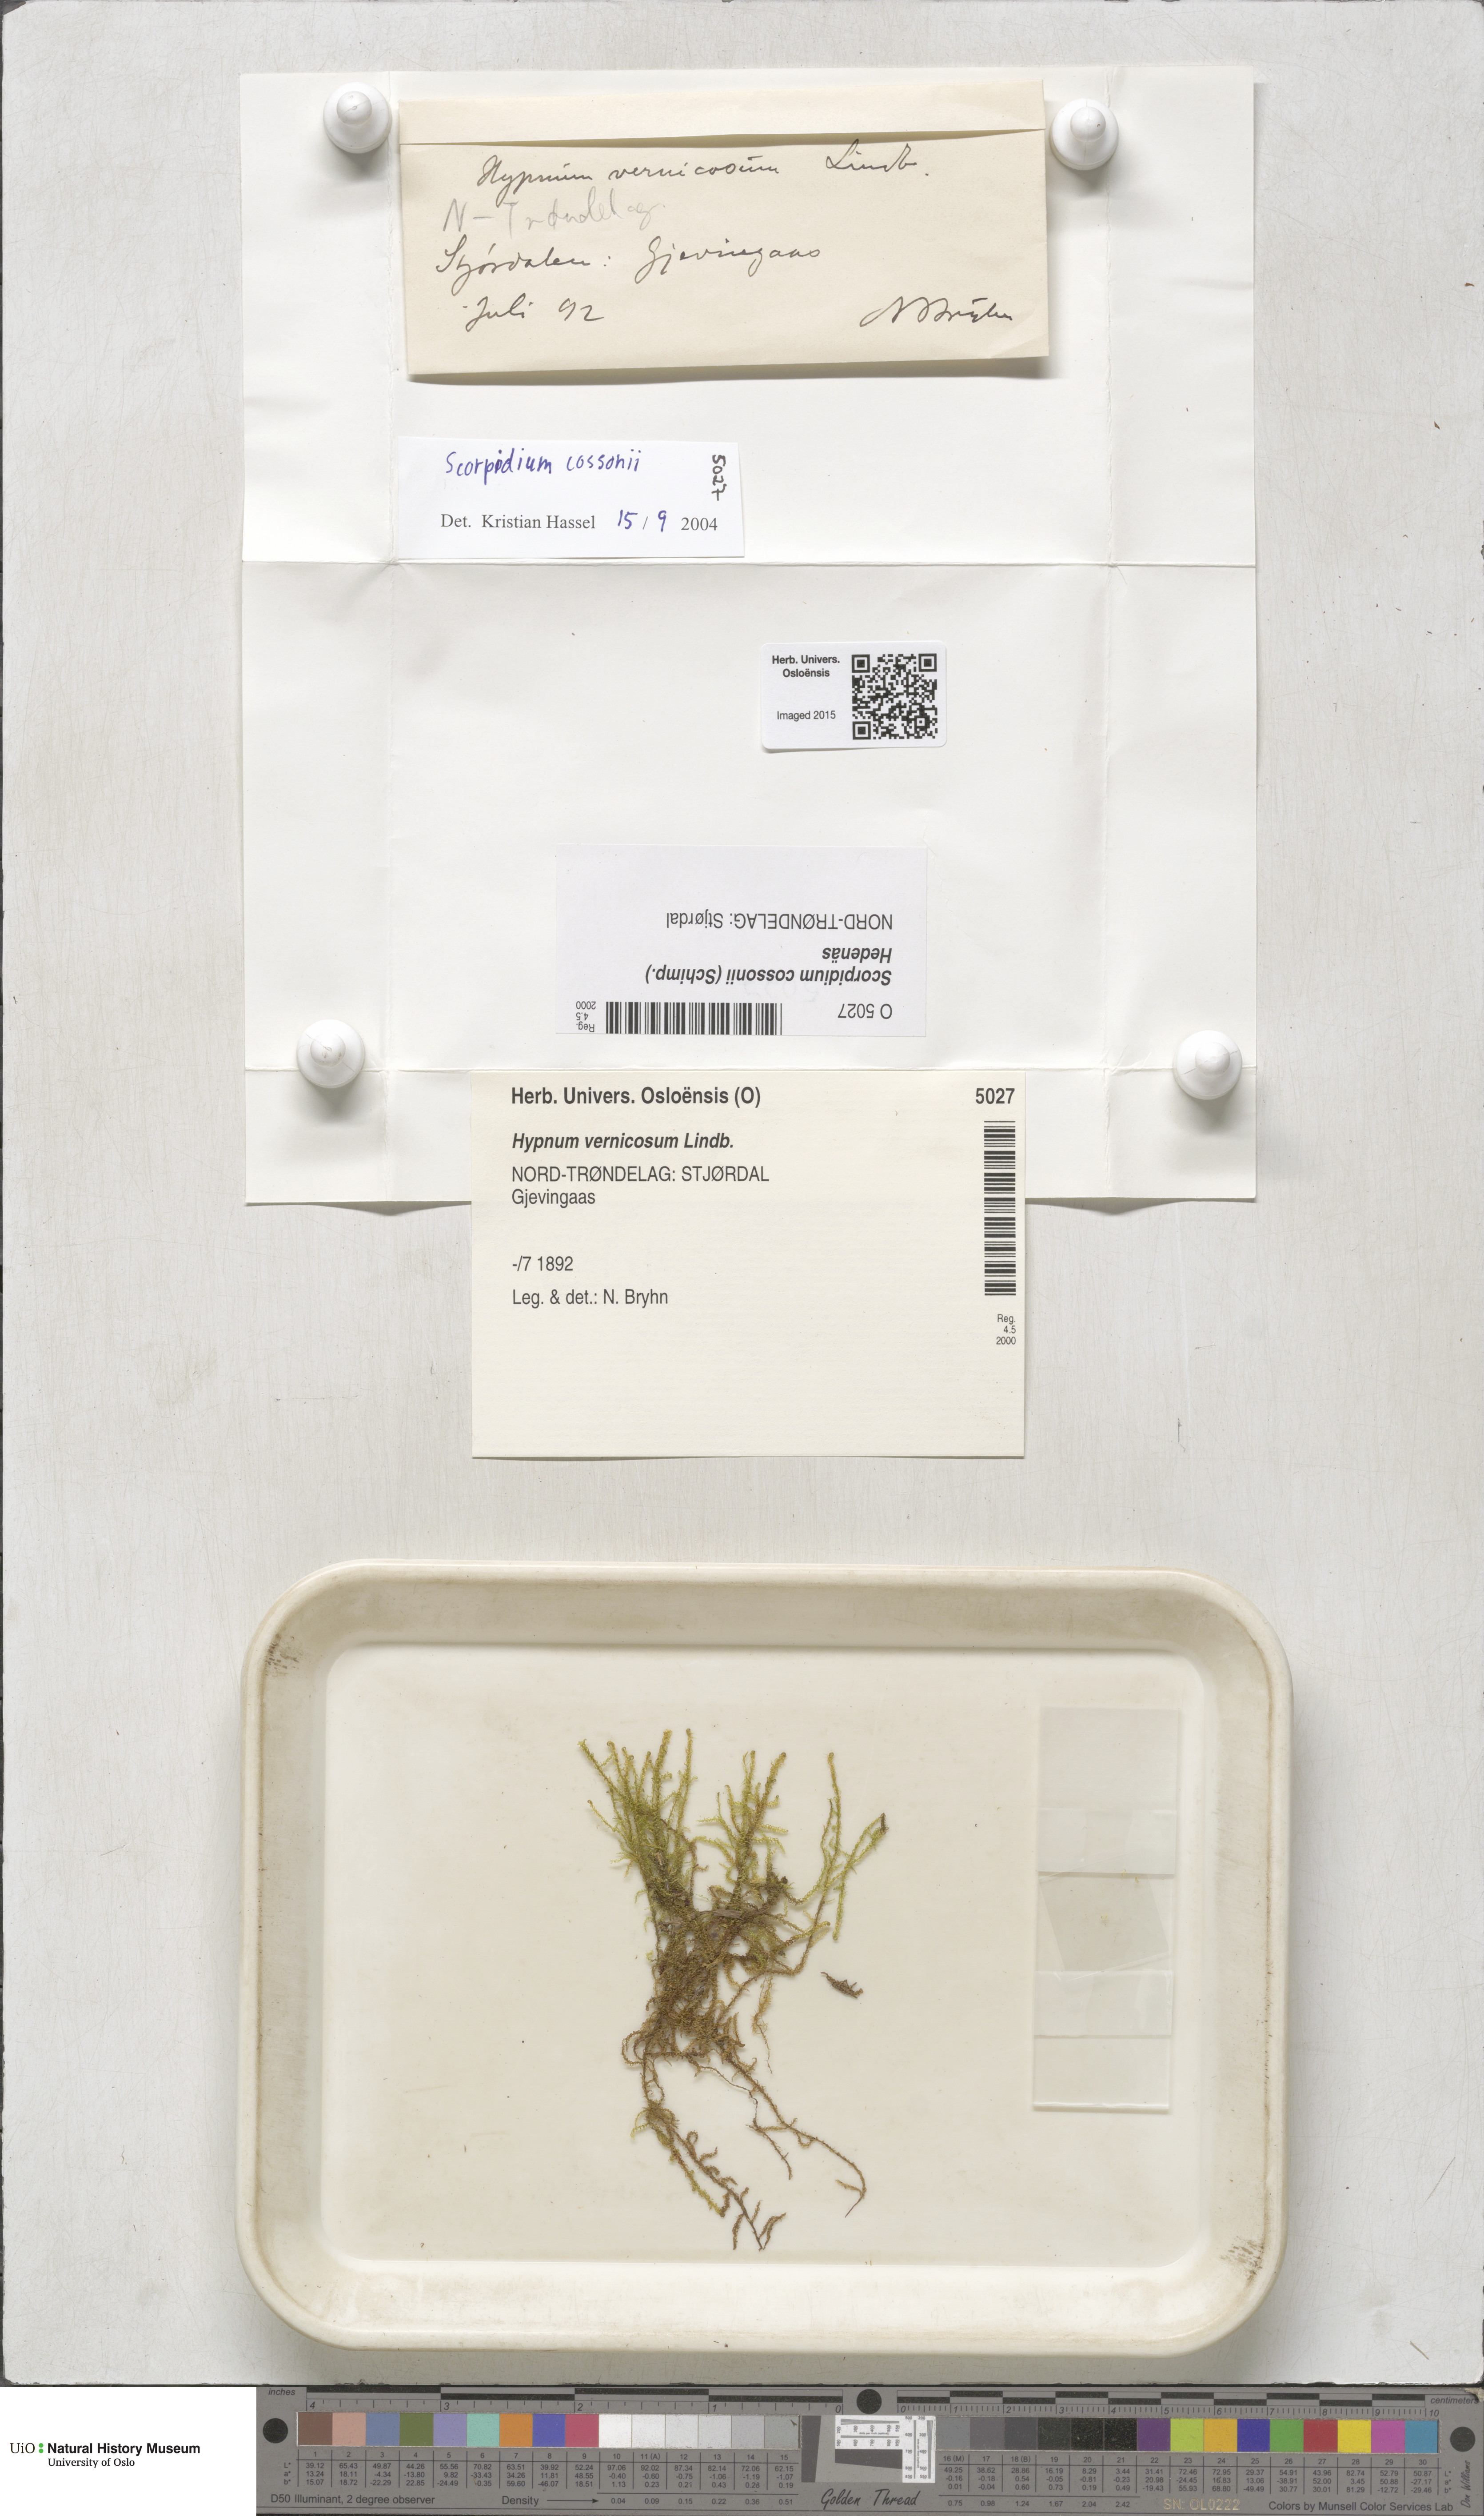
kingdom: Plantae
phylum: Bryophyta
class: Bryopsida
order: Hypnales
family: Scorpidiaceae
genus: Scorpidium
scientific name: Scorpidium cossonii
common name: Cosson's hook moss
